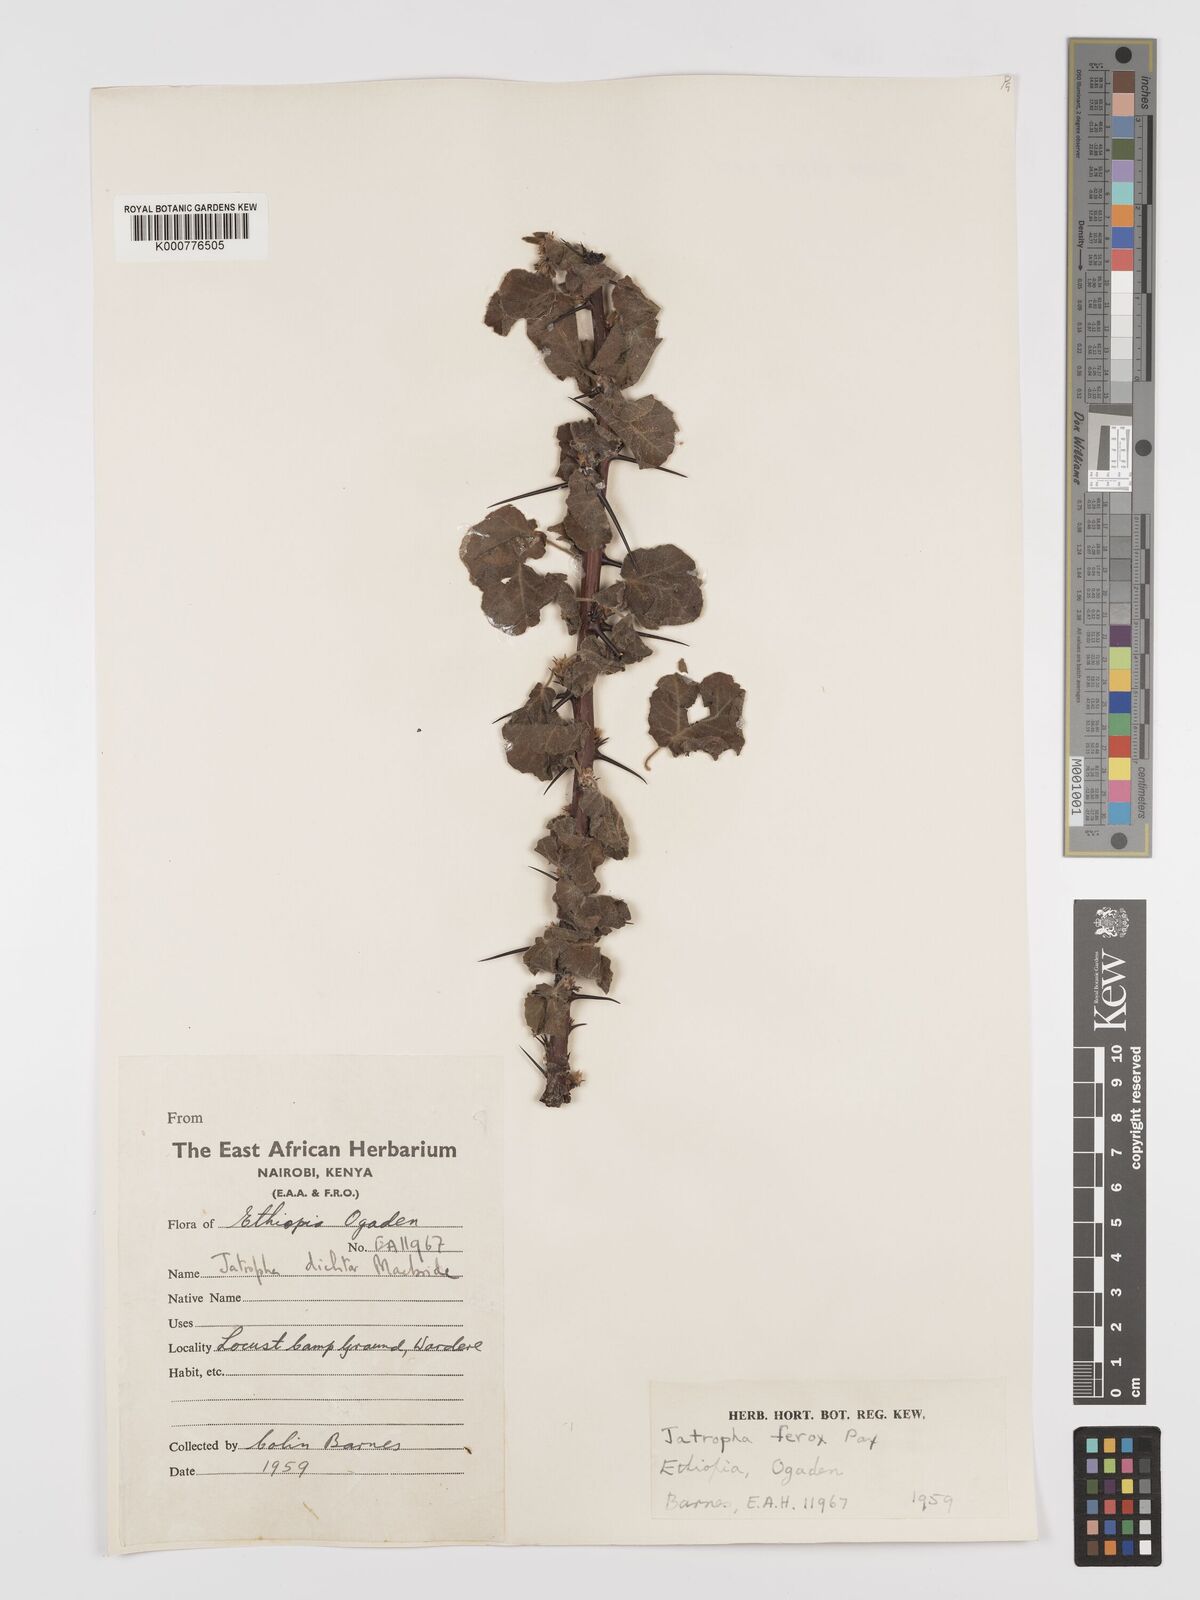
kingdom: Plantae
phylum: Tracheophyta
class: Magnoliopsida
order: Malpighiales
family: Euphorbiaceae
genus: Jatropha
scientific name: Jatropha dichtar
